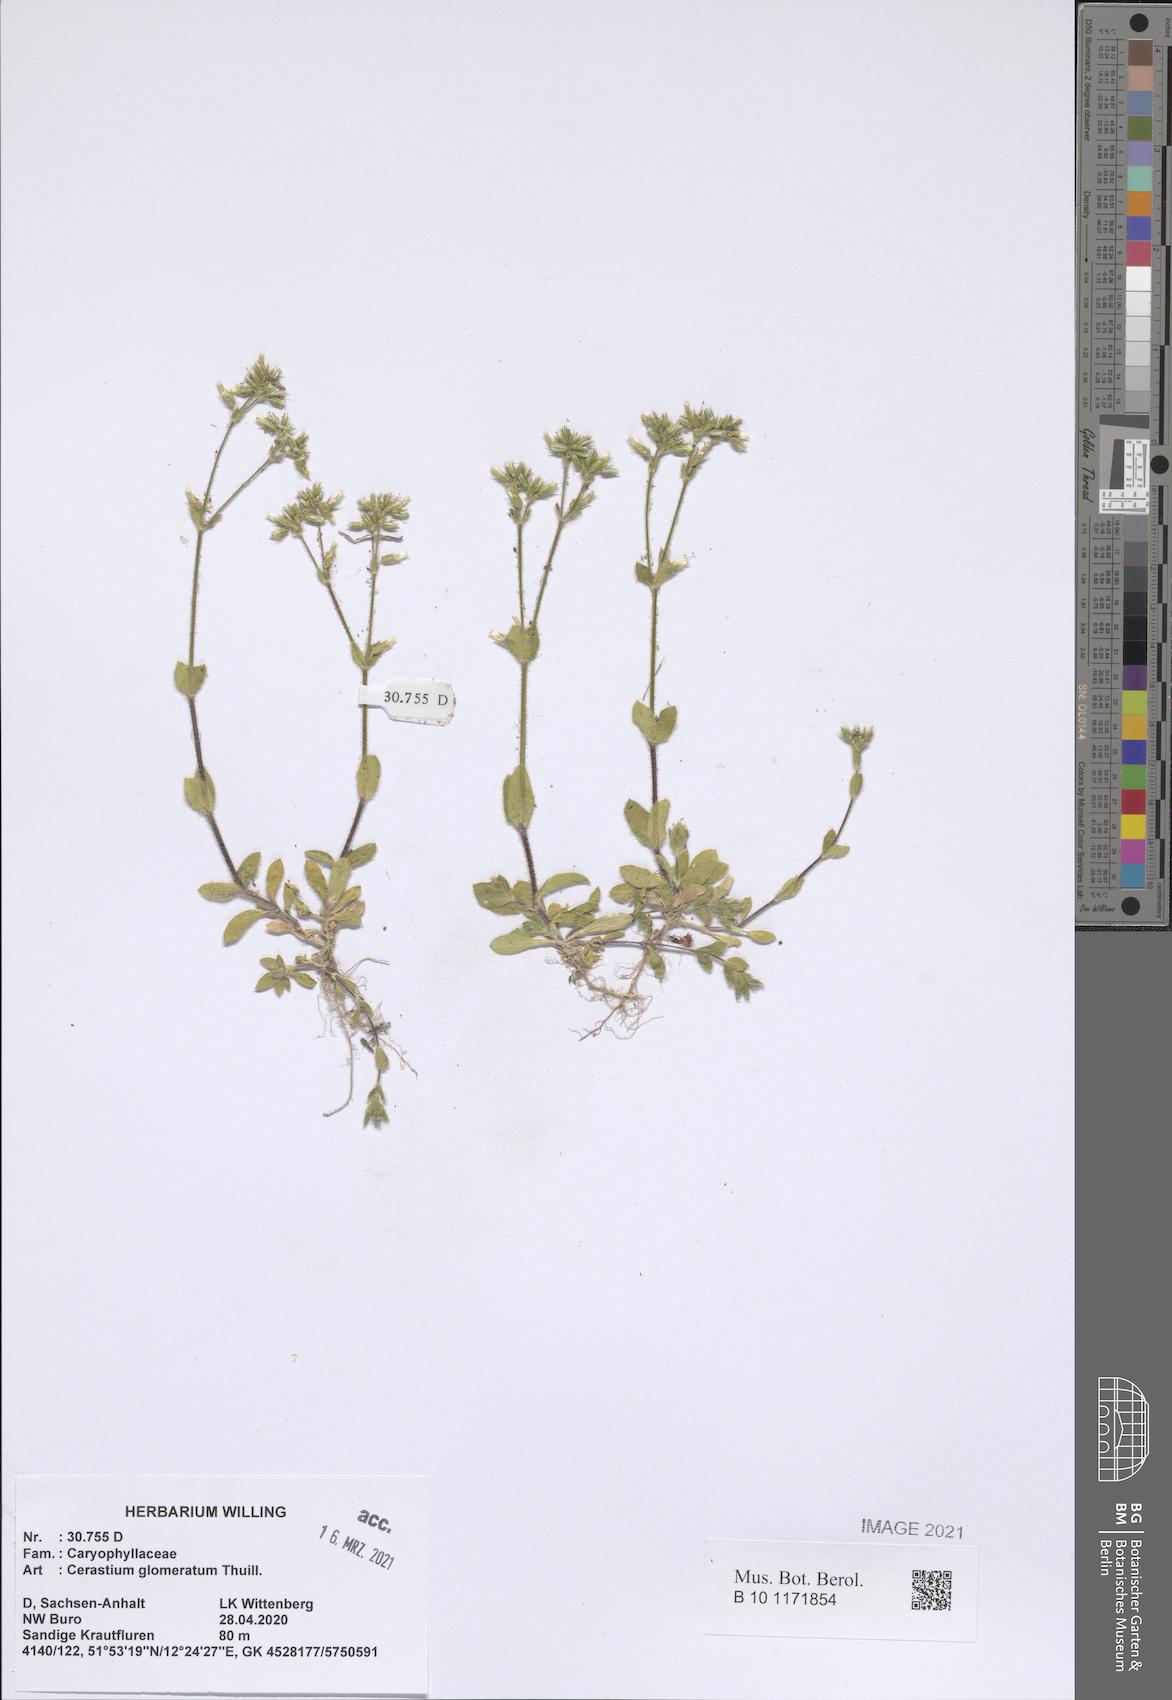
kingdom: Plantae
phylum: Tracheophyta
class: Magnoliopsida
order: Caryophyllales
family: Caryophyllaceae
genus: Cerastium
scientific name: Cerastium glomeratum
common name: Sticky chickweed
